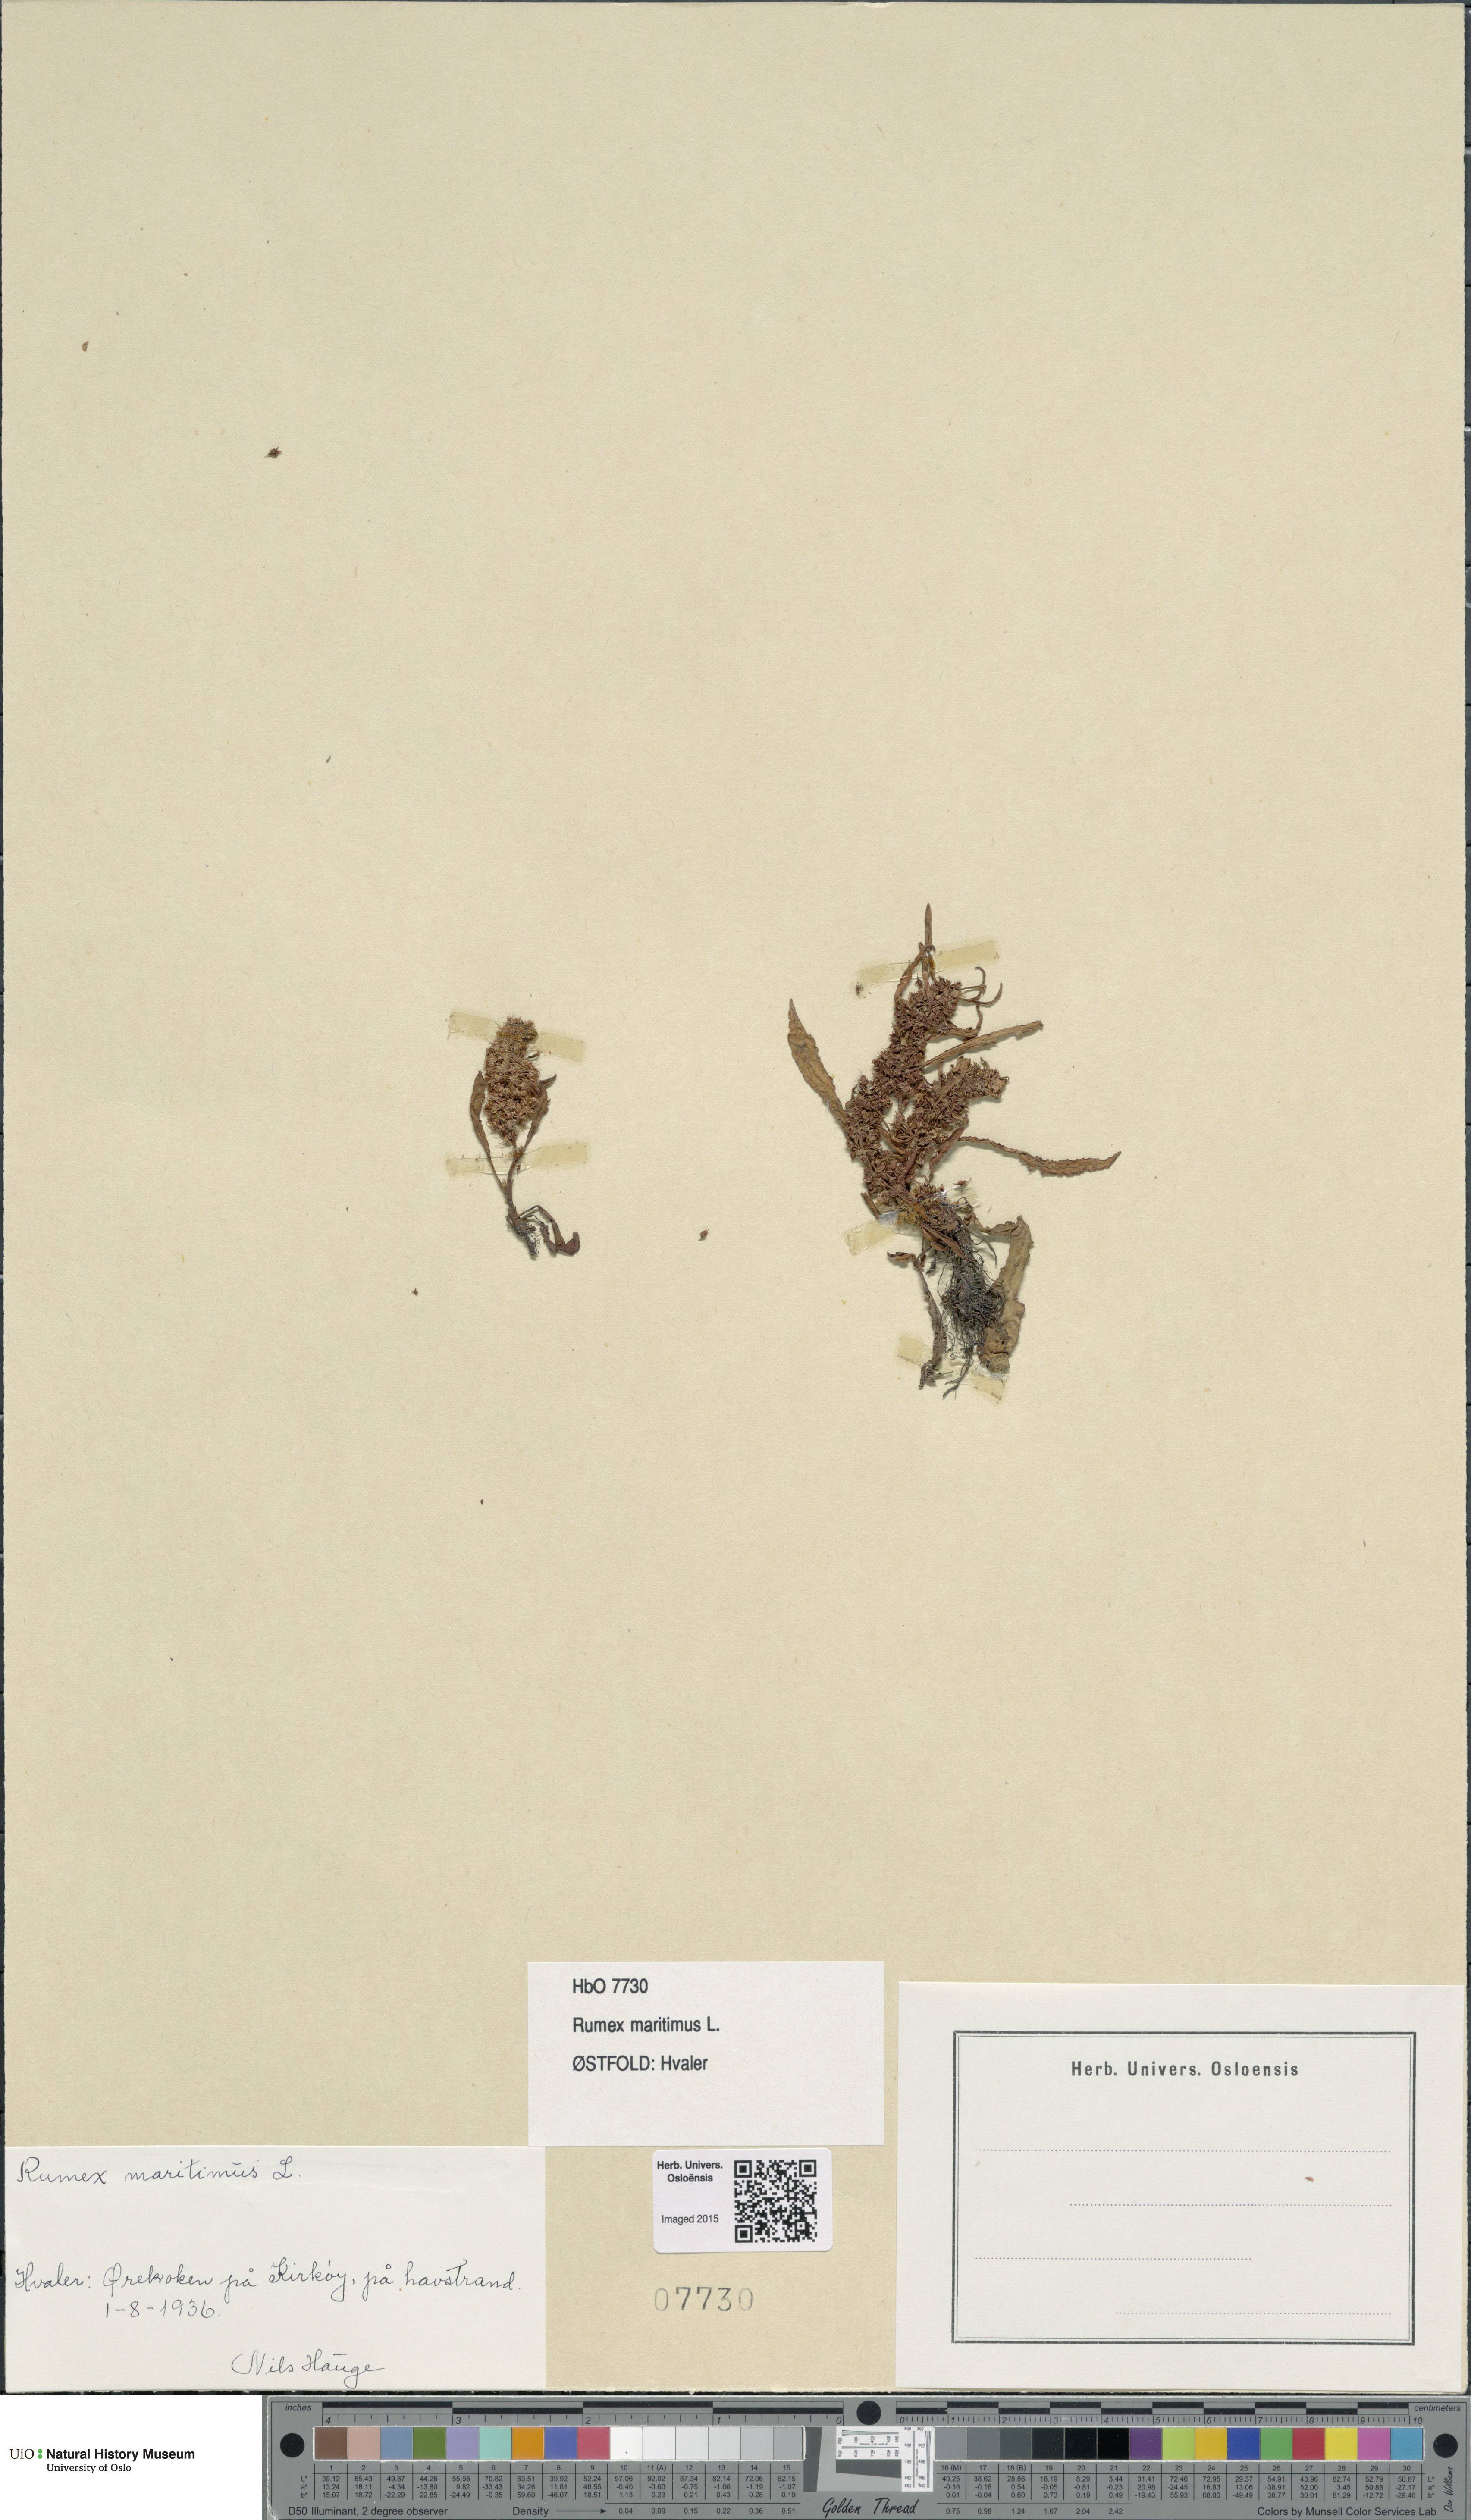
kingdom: Plantae
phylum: Tracheophyta
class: Magnoliopsida
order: Caryophyllales
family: Polygonaceae
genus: Rumex
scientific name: Rumex maritimus
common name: Golden dock
